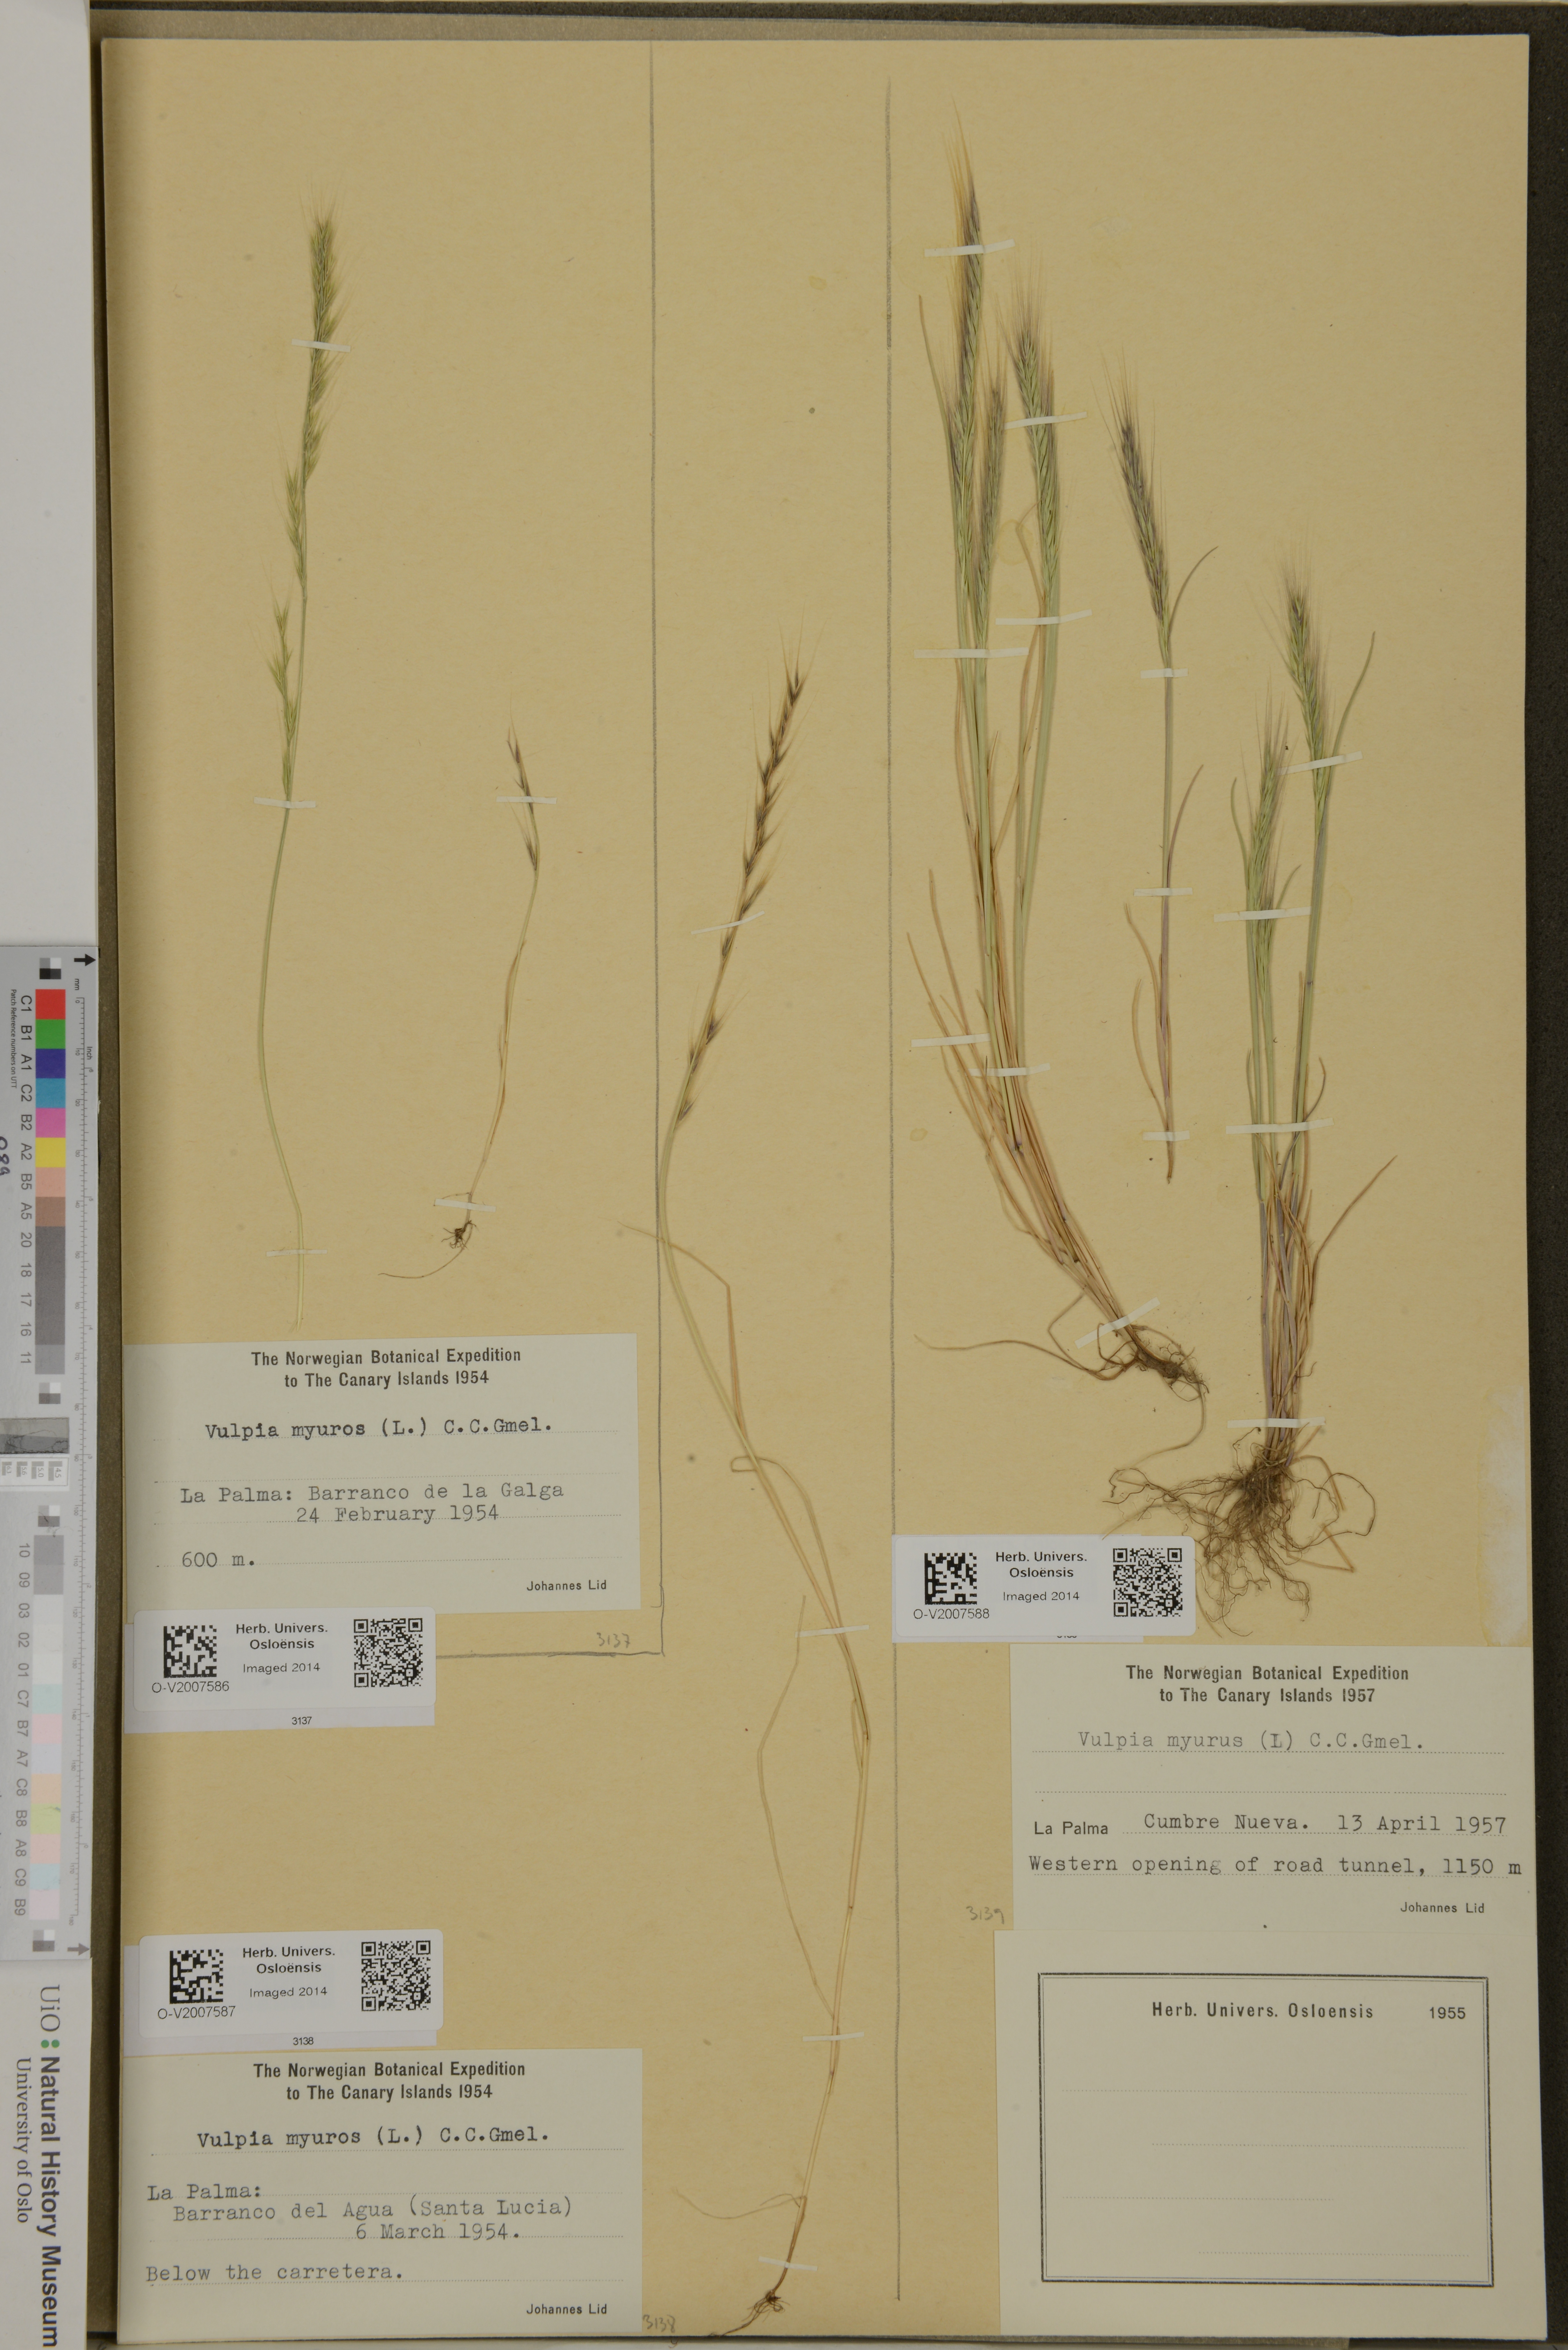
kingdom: Plantae
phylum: Tracheophyta
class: Liliopsida
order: Poales
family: Poaceae
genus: Festuca
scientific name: Festuca myuros
